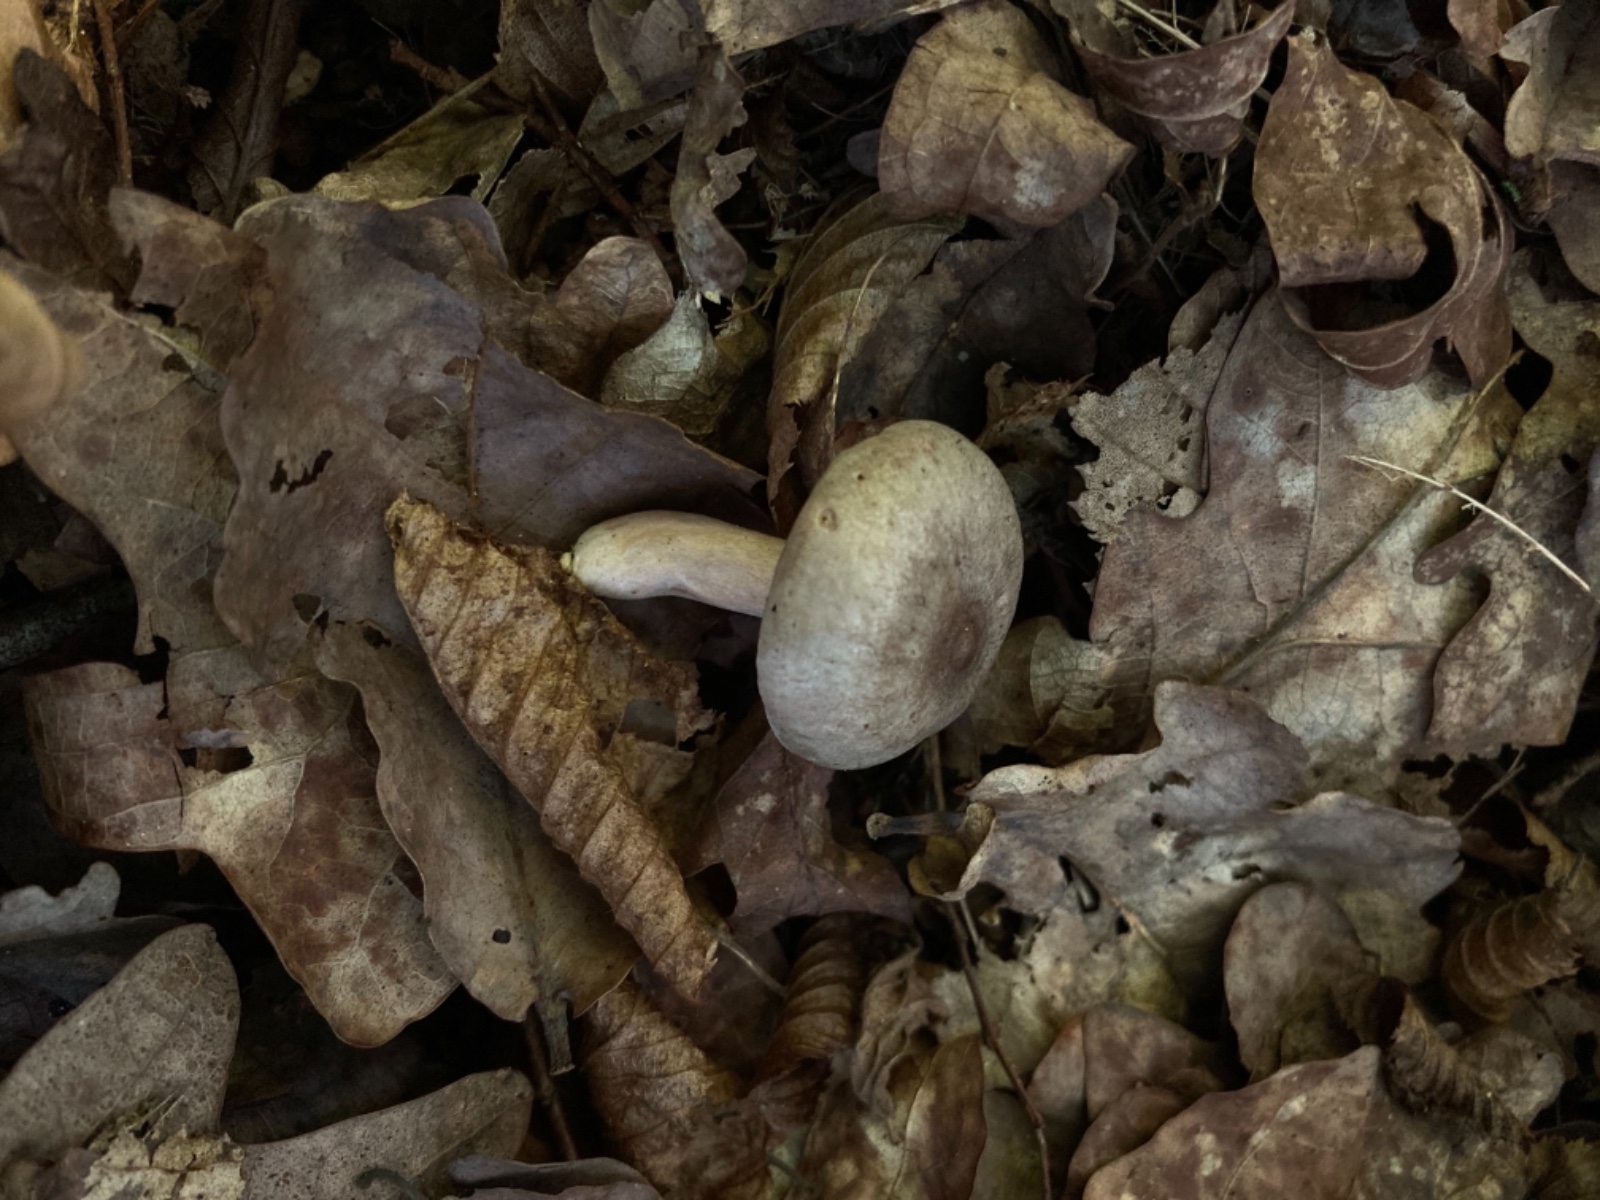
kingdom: Fungi
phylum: Basidiomycota
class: Agaricomycetes
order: Russulales
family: Russulaceae
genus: Lactarius
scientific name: Lactarius pyrogalus
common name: hassel-mælkehat
